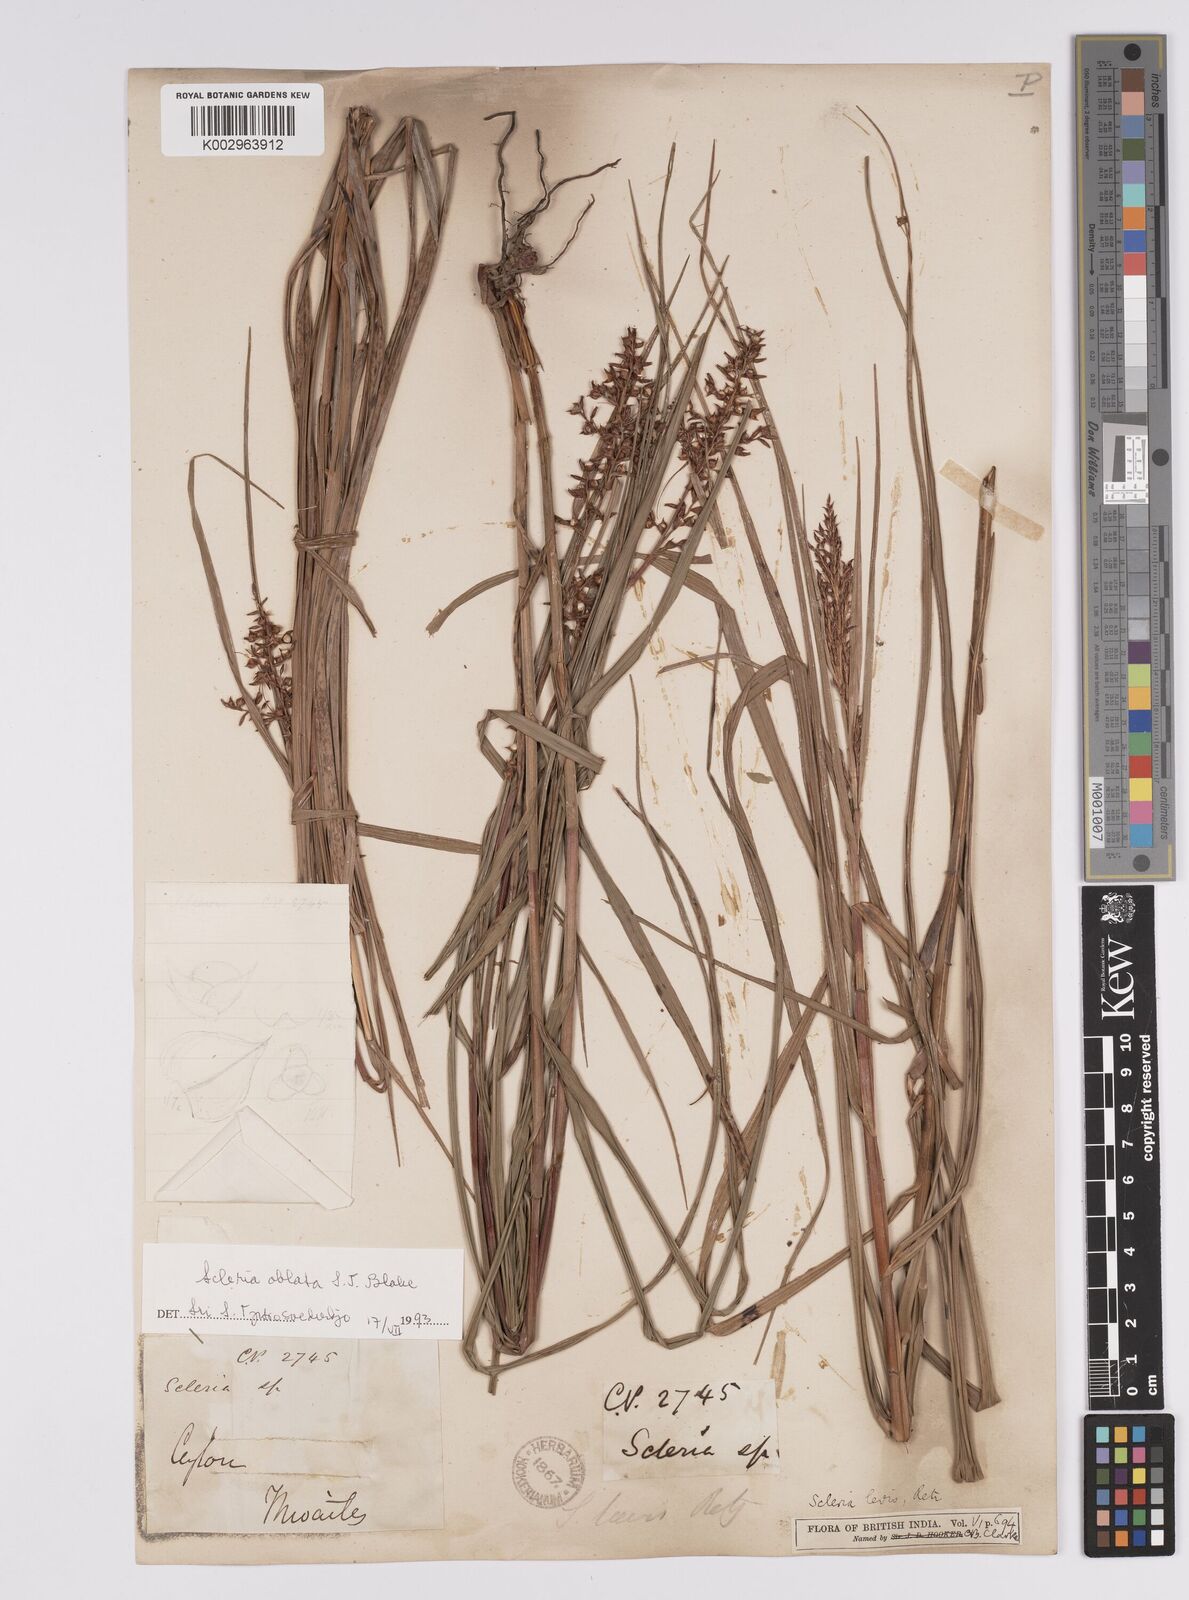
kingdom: Plantae
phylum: Tracheophyta
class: Liliopsida
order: Poales
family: Cyperaceae
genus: Scleria
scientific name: Scleria levis
